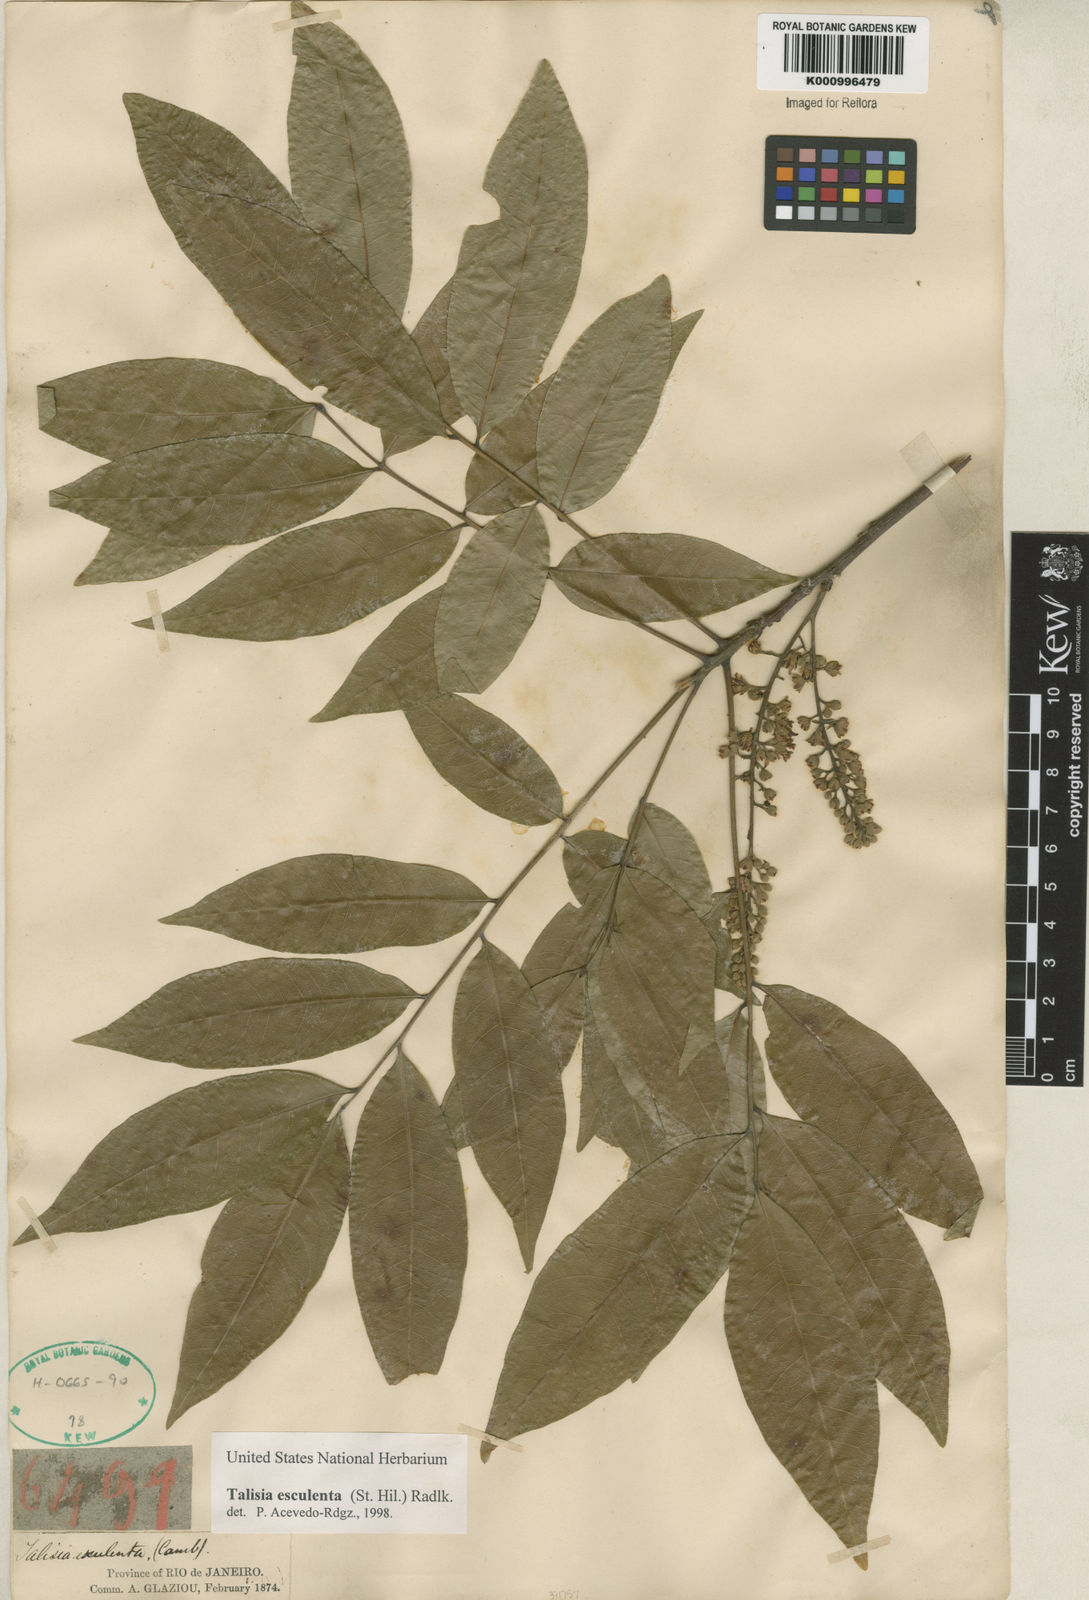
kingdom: Plantae
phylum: Tracheophyta
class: Magnoliopsida
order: Sapindales
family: Sapindaceae
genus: Talisia
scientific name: Talisia
